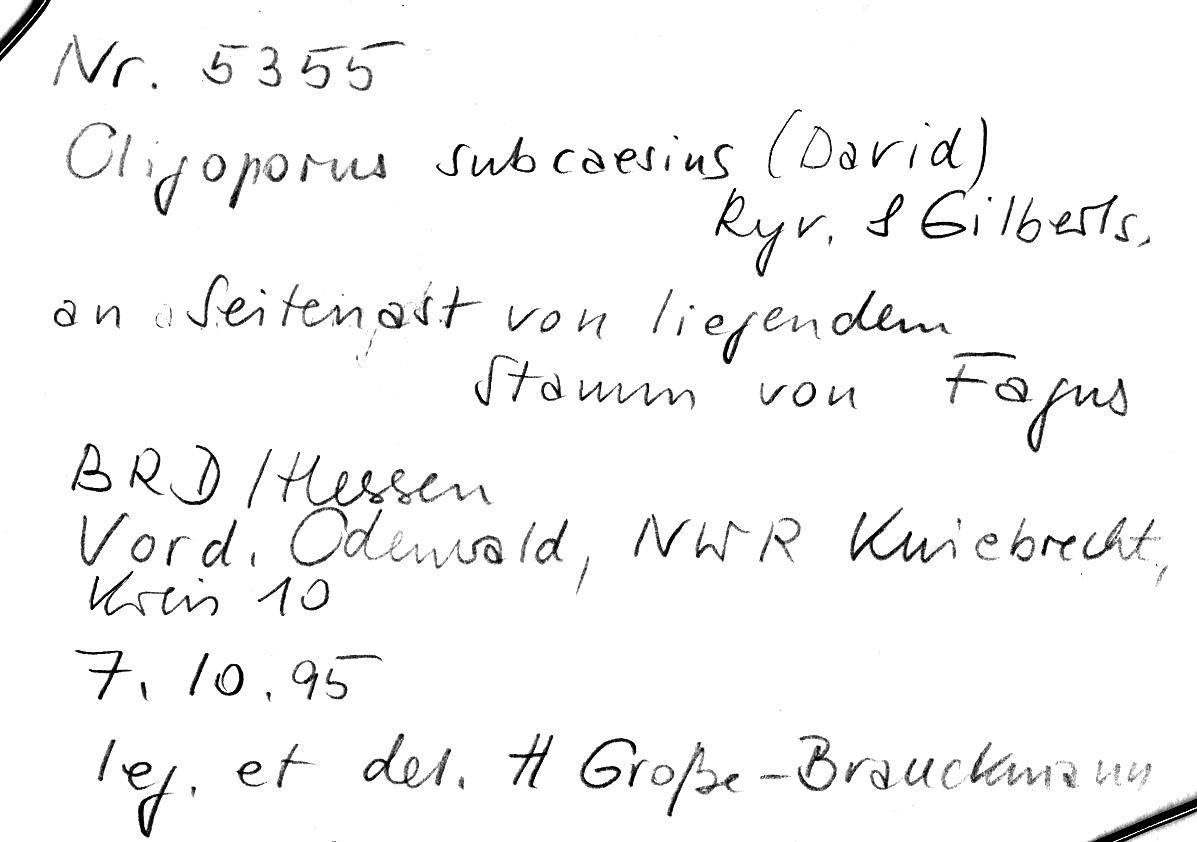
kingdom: Plantae
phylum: Tracheophyta
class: Magnoliopsida
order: Fagales
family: Fagaceae
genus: Fagus
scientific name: Fagus sylvatica
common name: Beech
